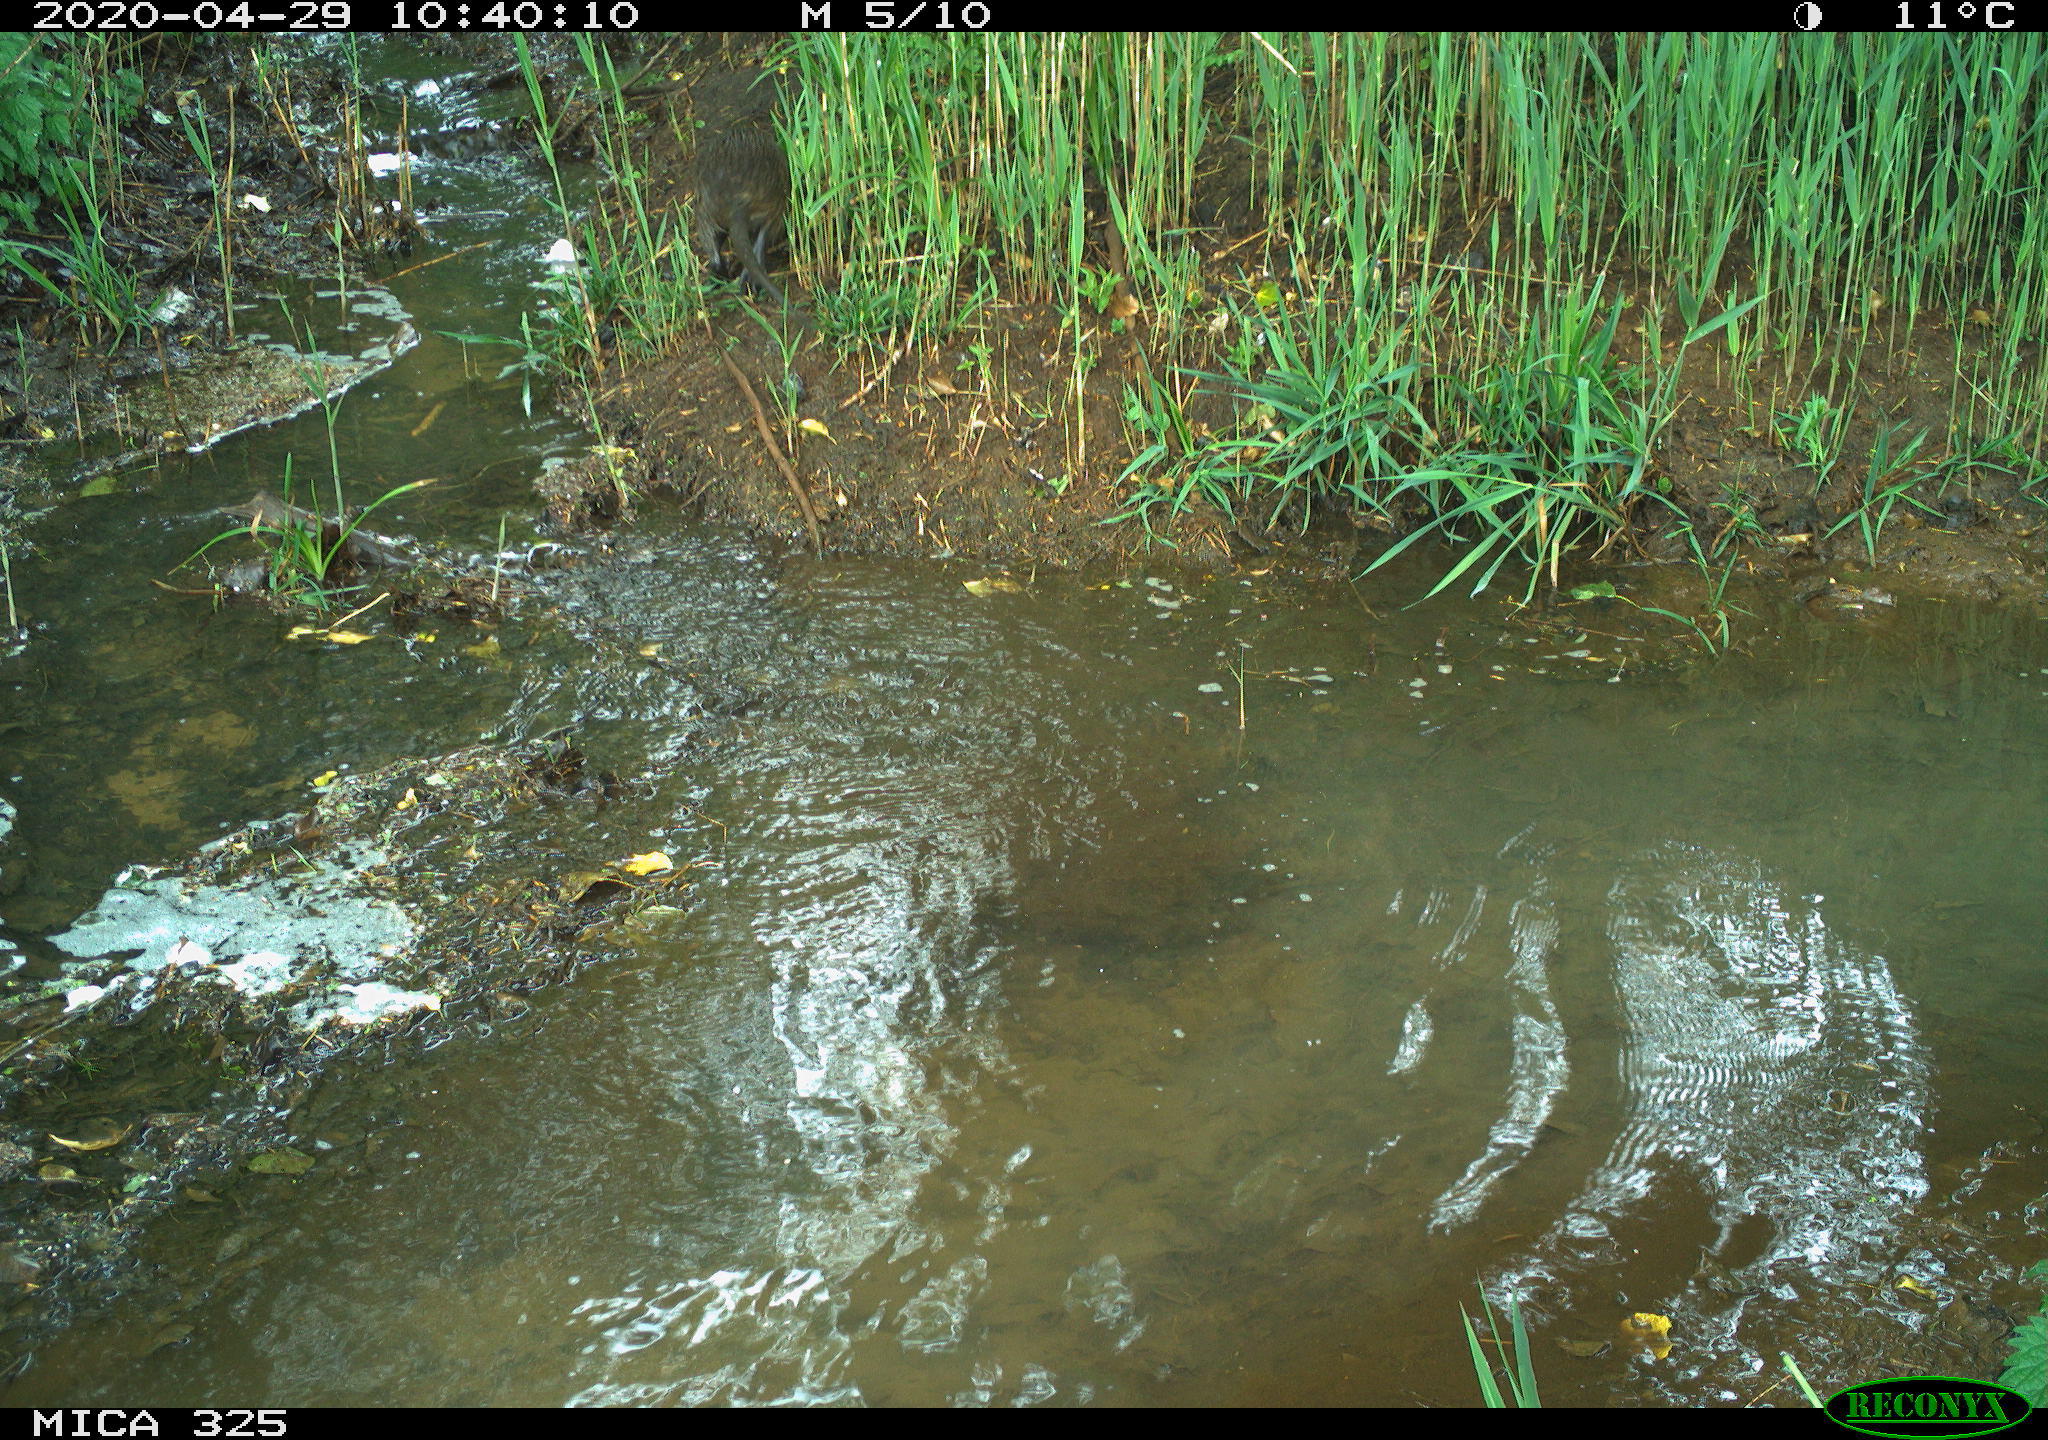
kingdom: Animalia
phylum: Chordata
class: Mammalia
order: Rodentia
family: Myocastoridae
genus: Myocastor
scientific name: Myocastor coypus
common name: Coypu
